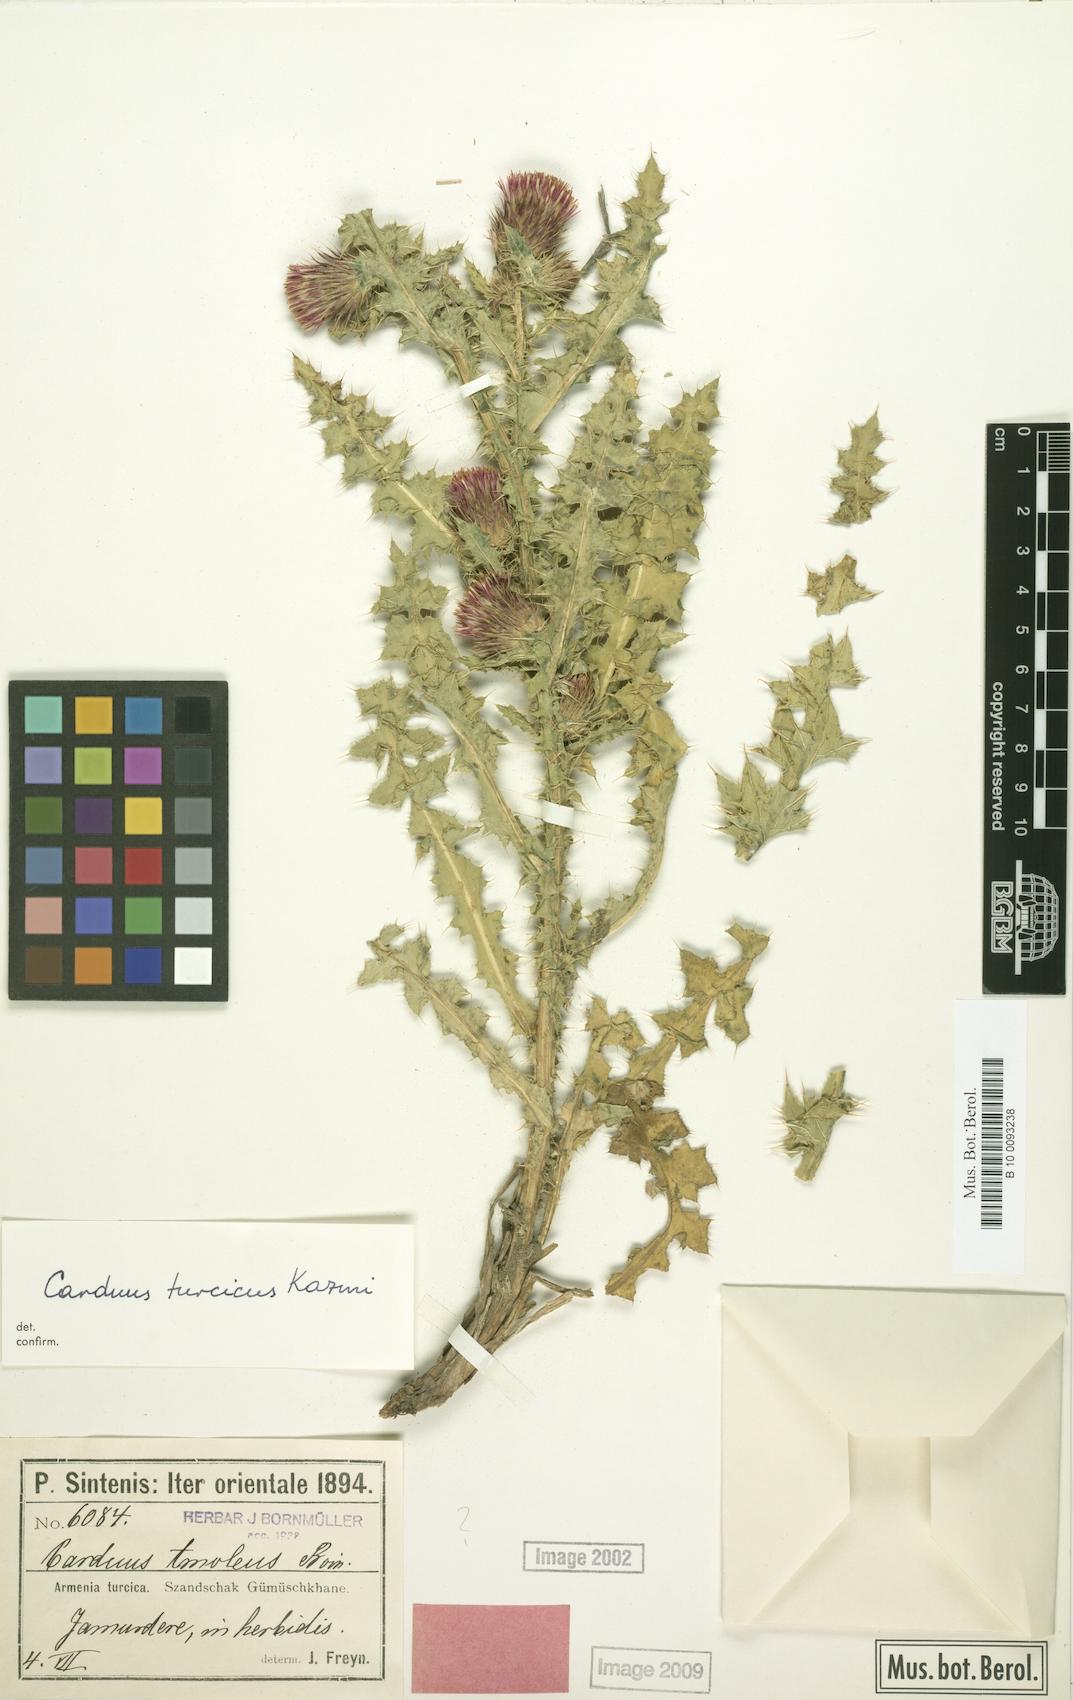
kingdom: Plantae
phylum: Tracheophyta
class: Magnoliopsida
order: Asterales
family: Asteraceae
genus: Carduus
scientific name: Carduus onopordioides
